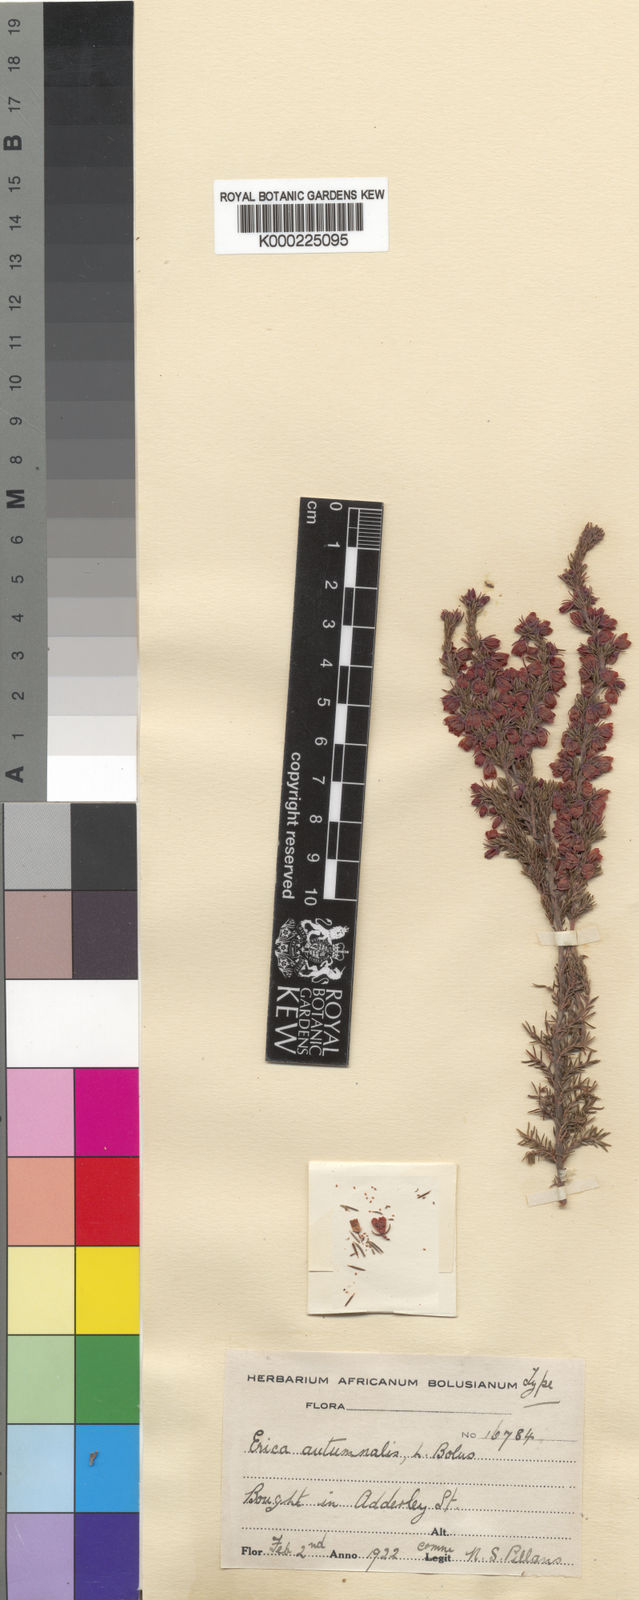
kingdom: Plantae
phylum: Tracheophyta
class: Magnoliopsida
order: Ericales
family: Ericaceae
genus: Erica
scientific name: Erica autumnalis
